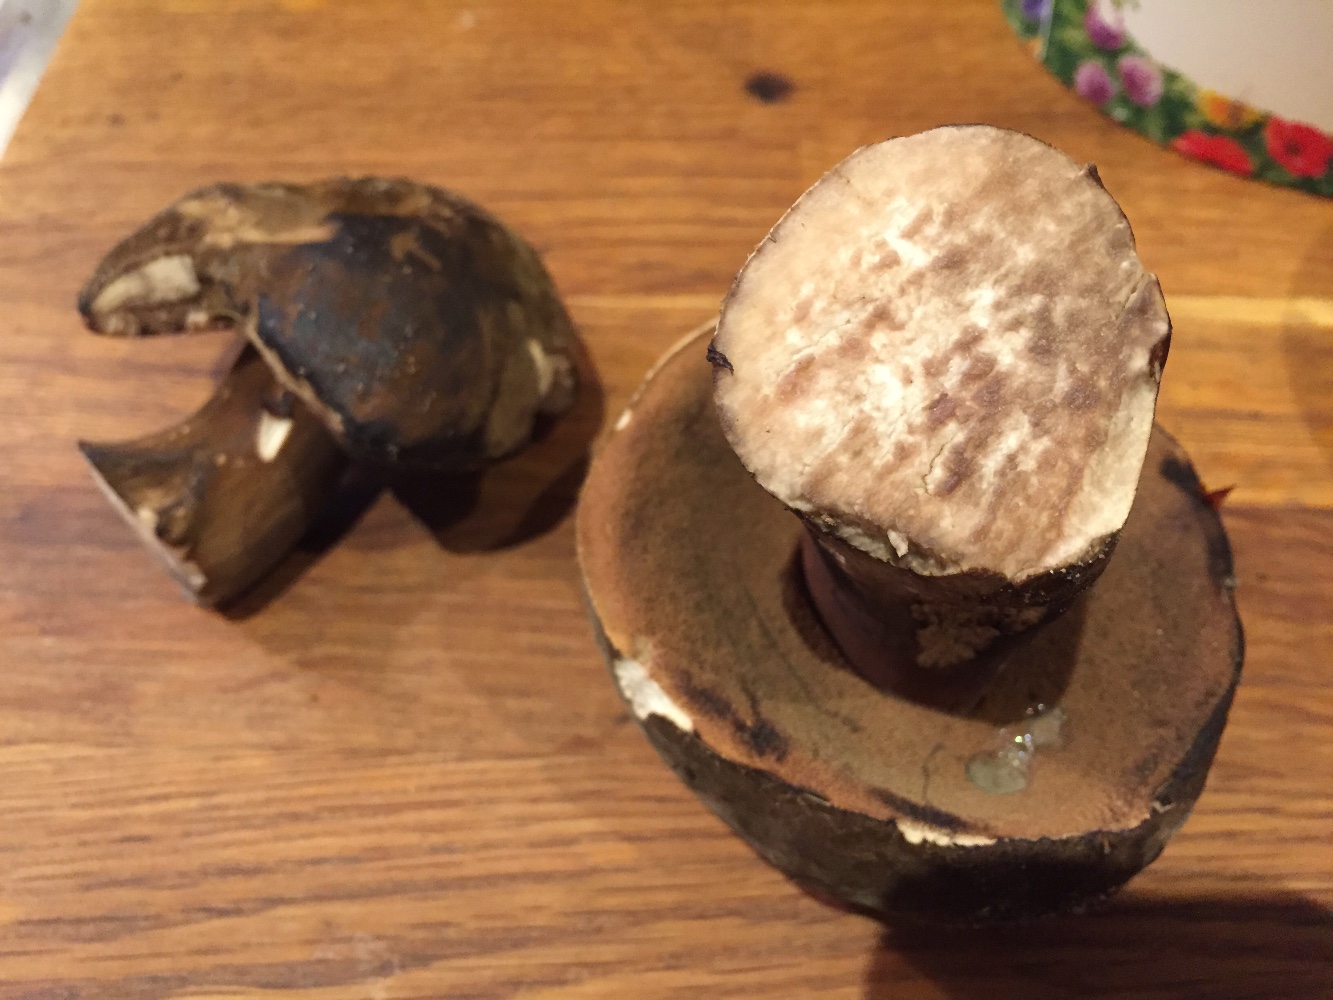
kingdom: Fungi
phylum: Basidiomycota
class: Agaricomycetes
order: Boletales
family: Boletaceae
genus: Porphyrellus
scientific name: Porphyrellus porphyrosporus
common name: sodrørhat
